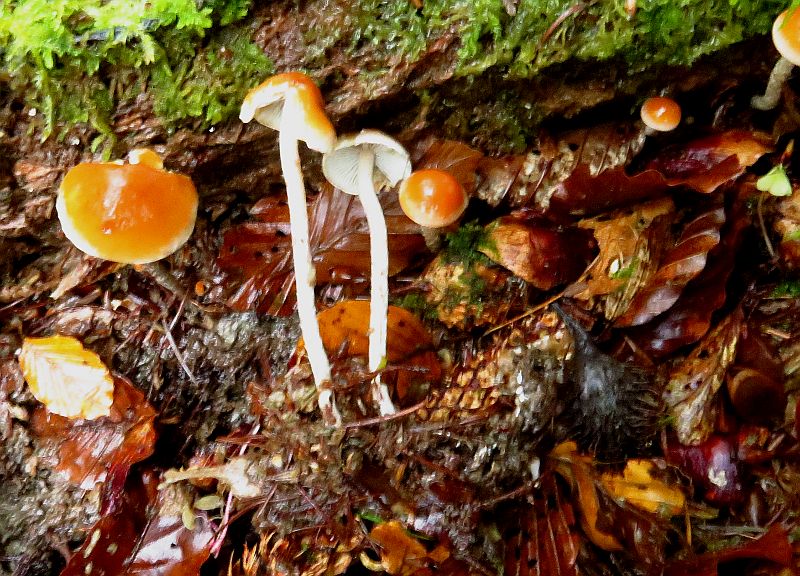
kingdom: Fungi
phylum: Basidiomycota
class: Agaricomycetes
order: Agaricales
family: Strophariaceae
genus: Hypholoma
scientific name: Hypholoma marginatum
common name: enlig svovlhat
